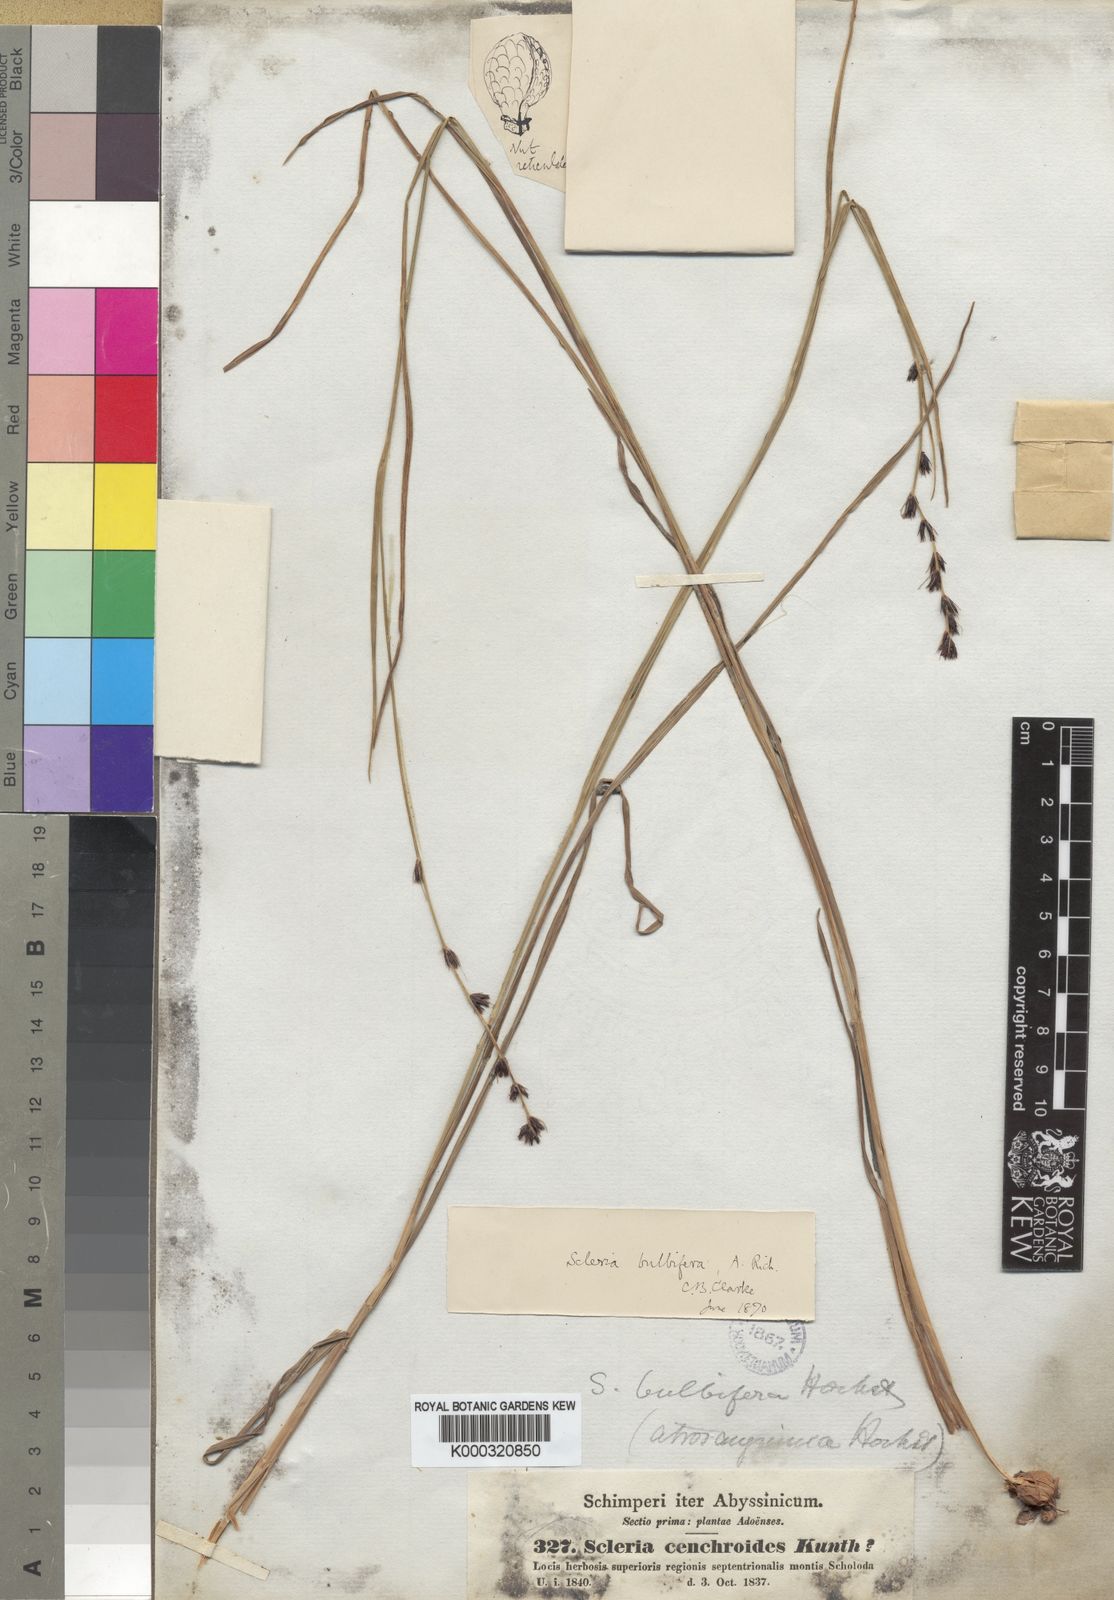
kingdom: Plantae
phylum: Tracheophyta
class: Liliopsida
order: Poales
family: Cyperaceae
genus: Scleria
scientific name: Scleria bulbifera
